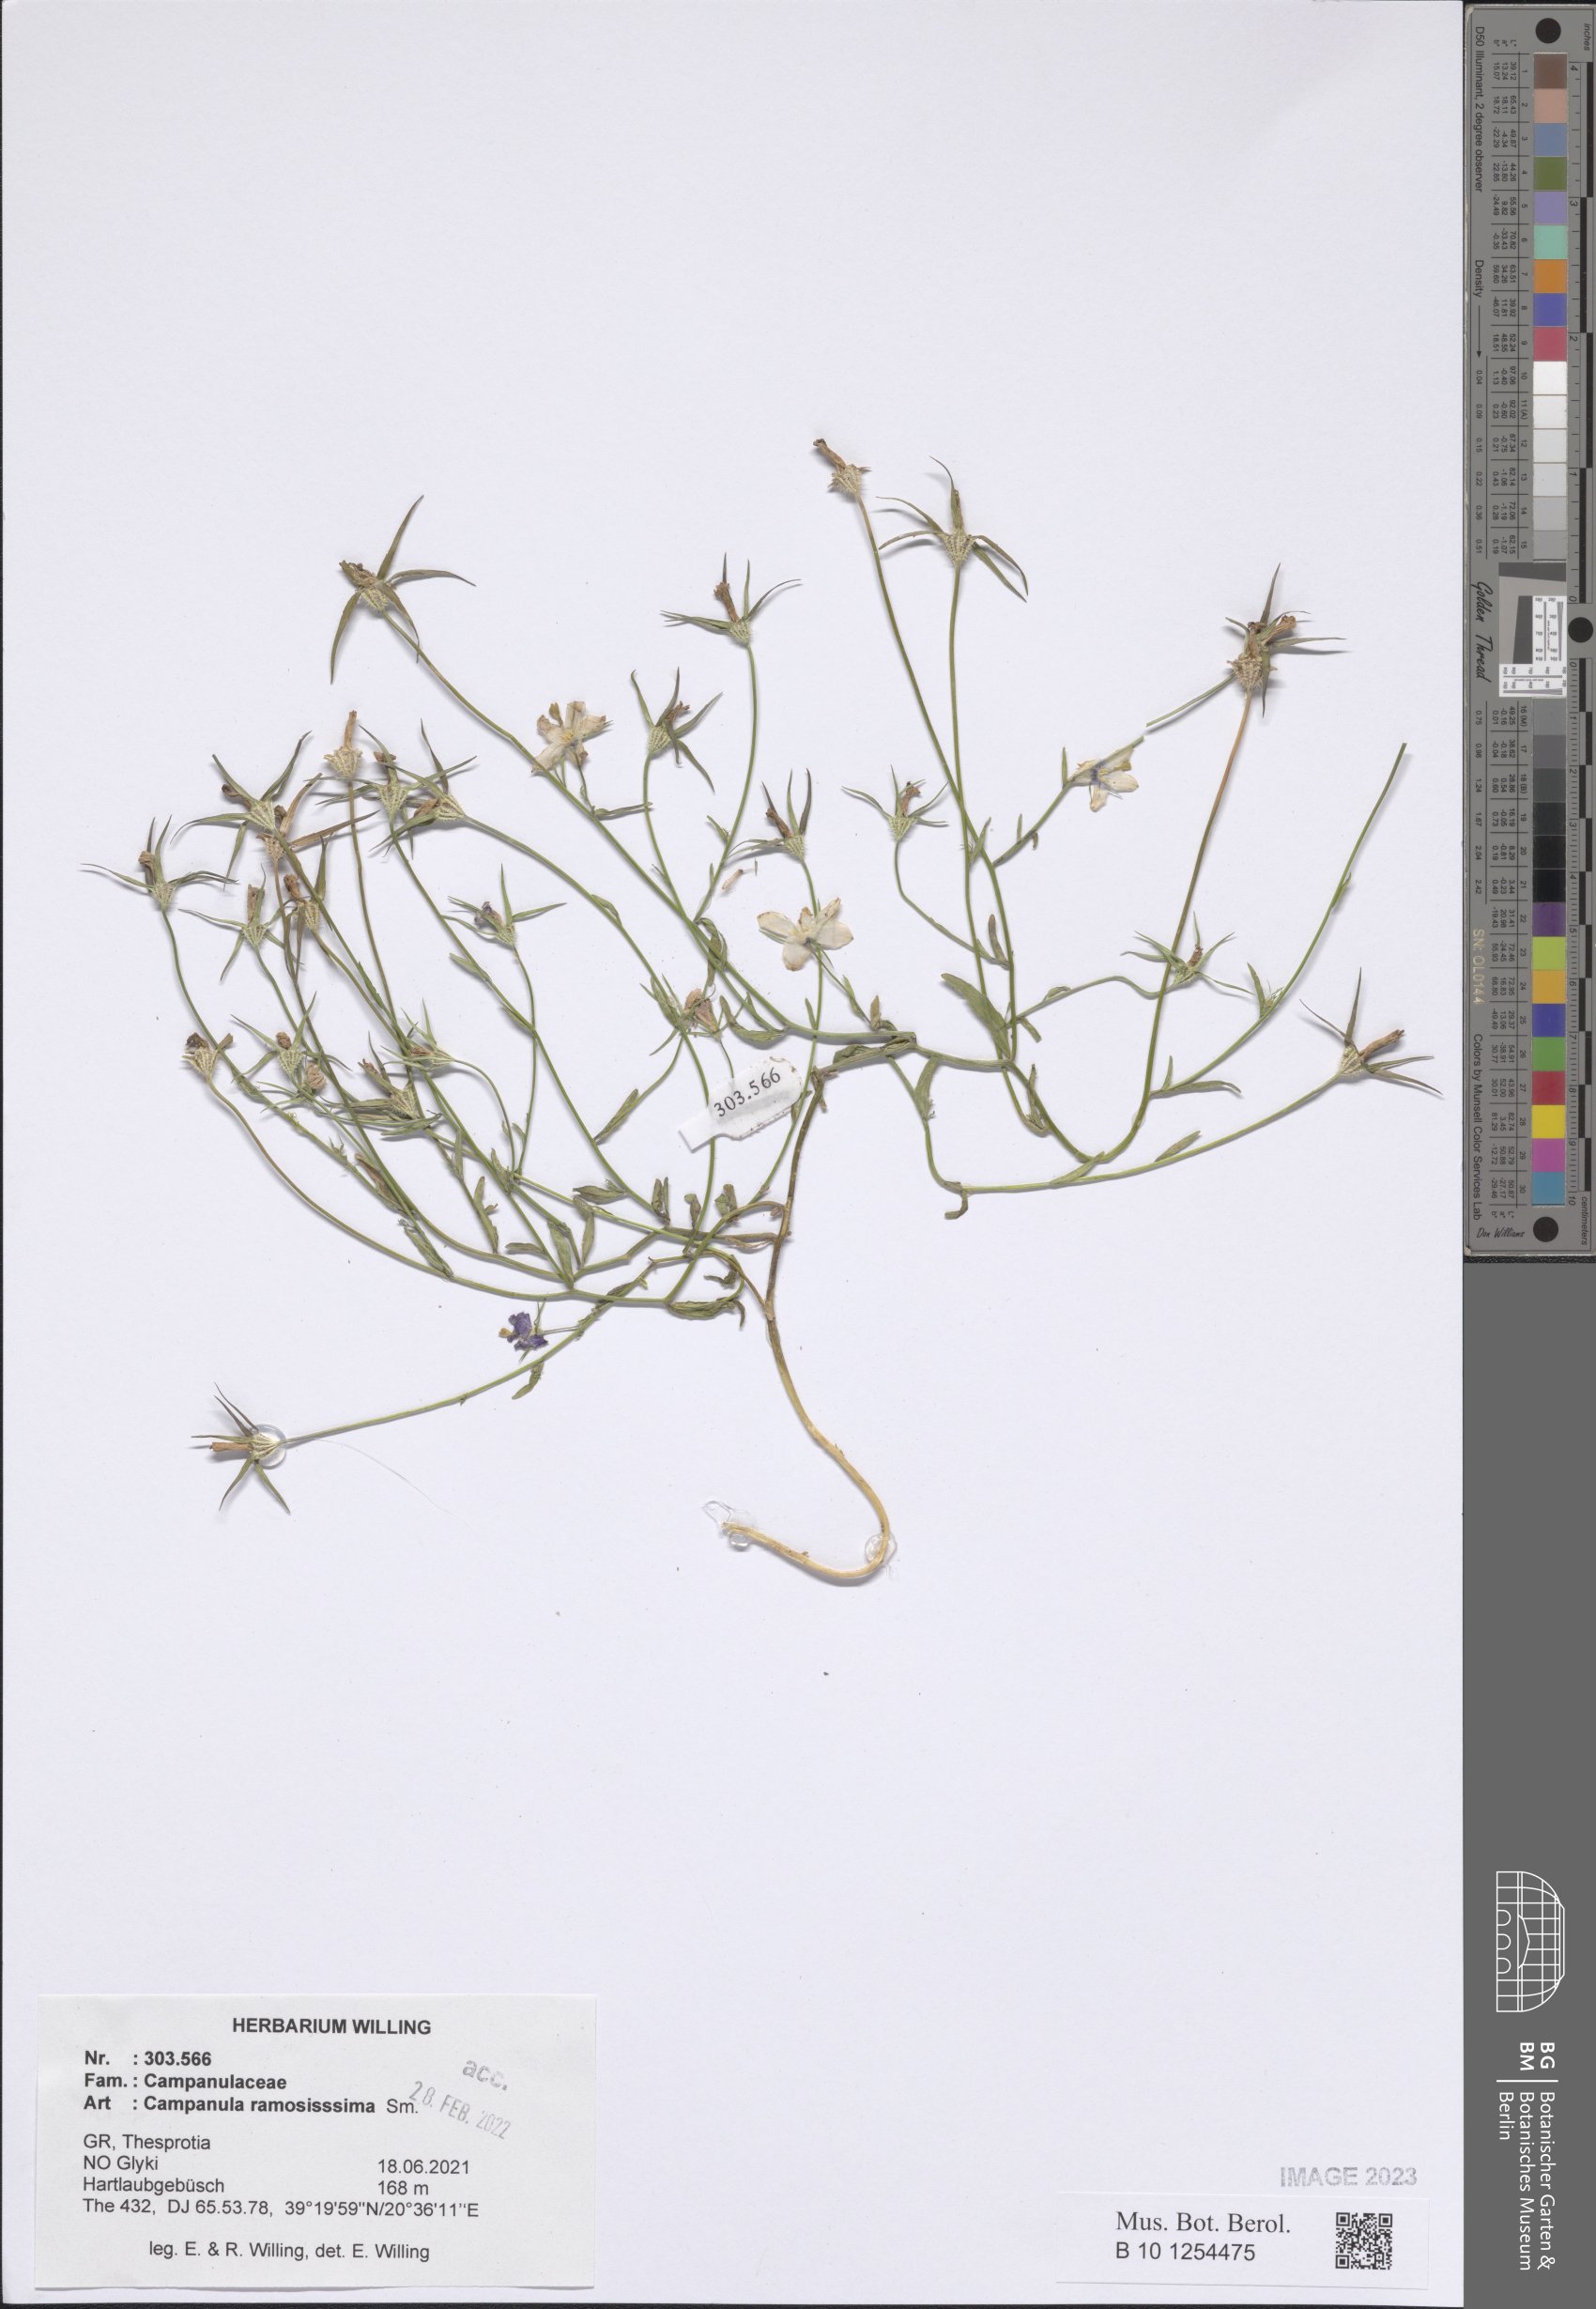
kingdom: Plantae
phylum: Tracheophyta
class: Magnoliopsida
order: Asterales
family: Campanulaceae
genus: Campanula
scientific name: Campanula ramosissima
